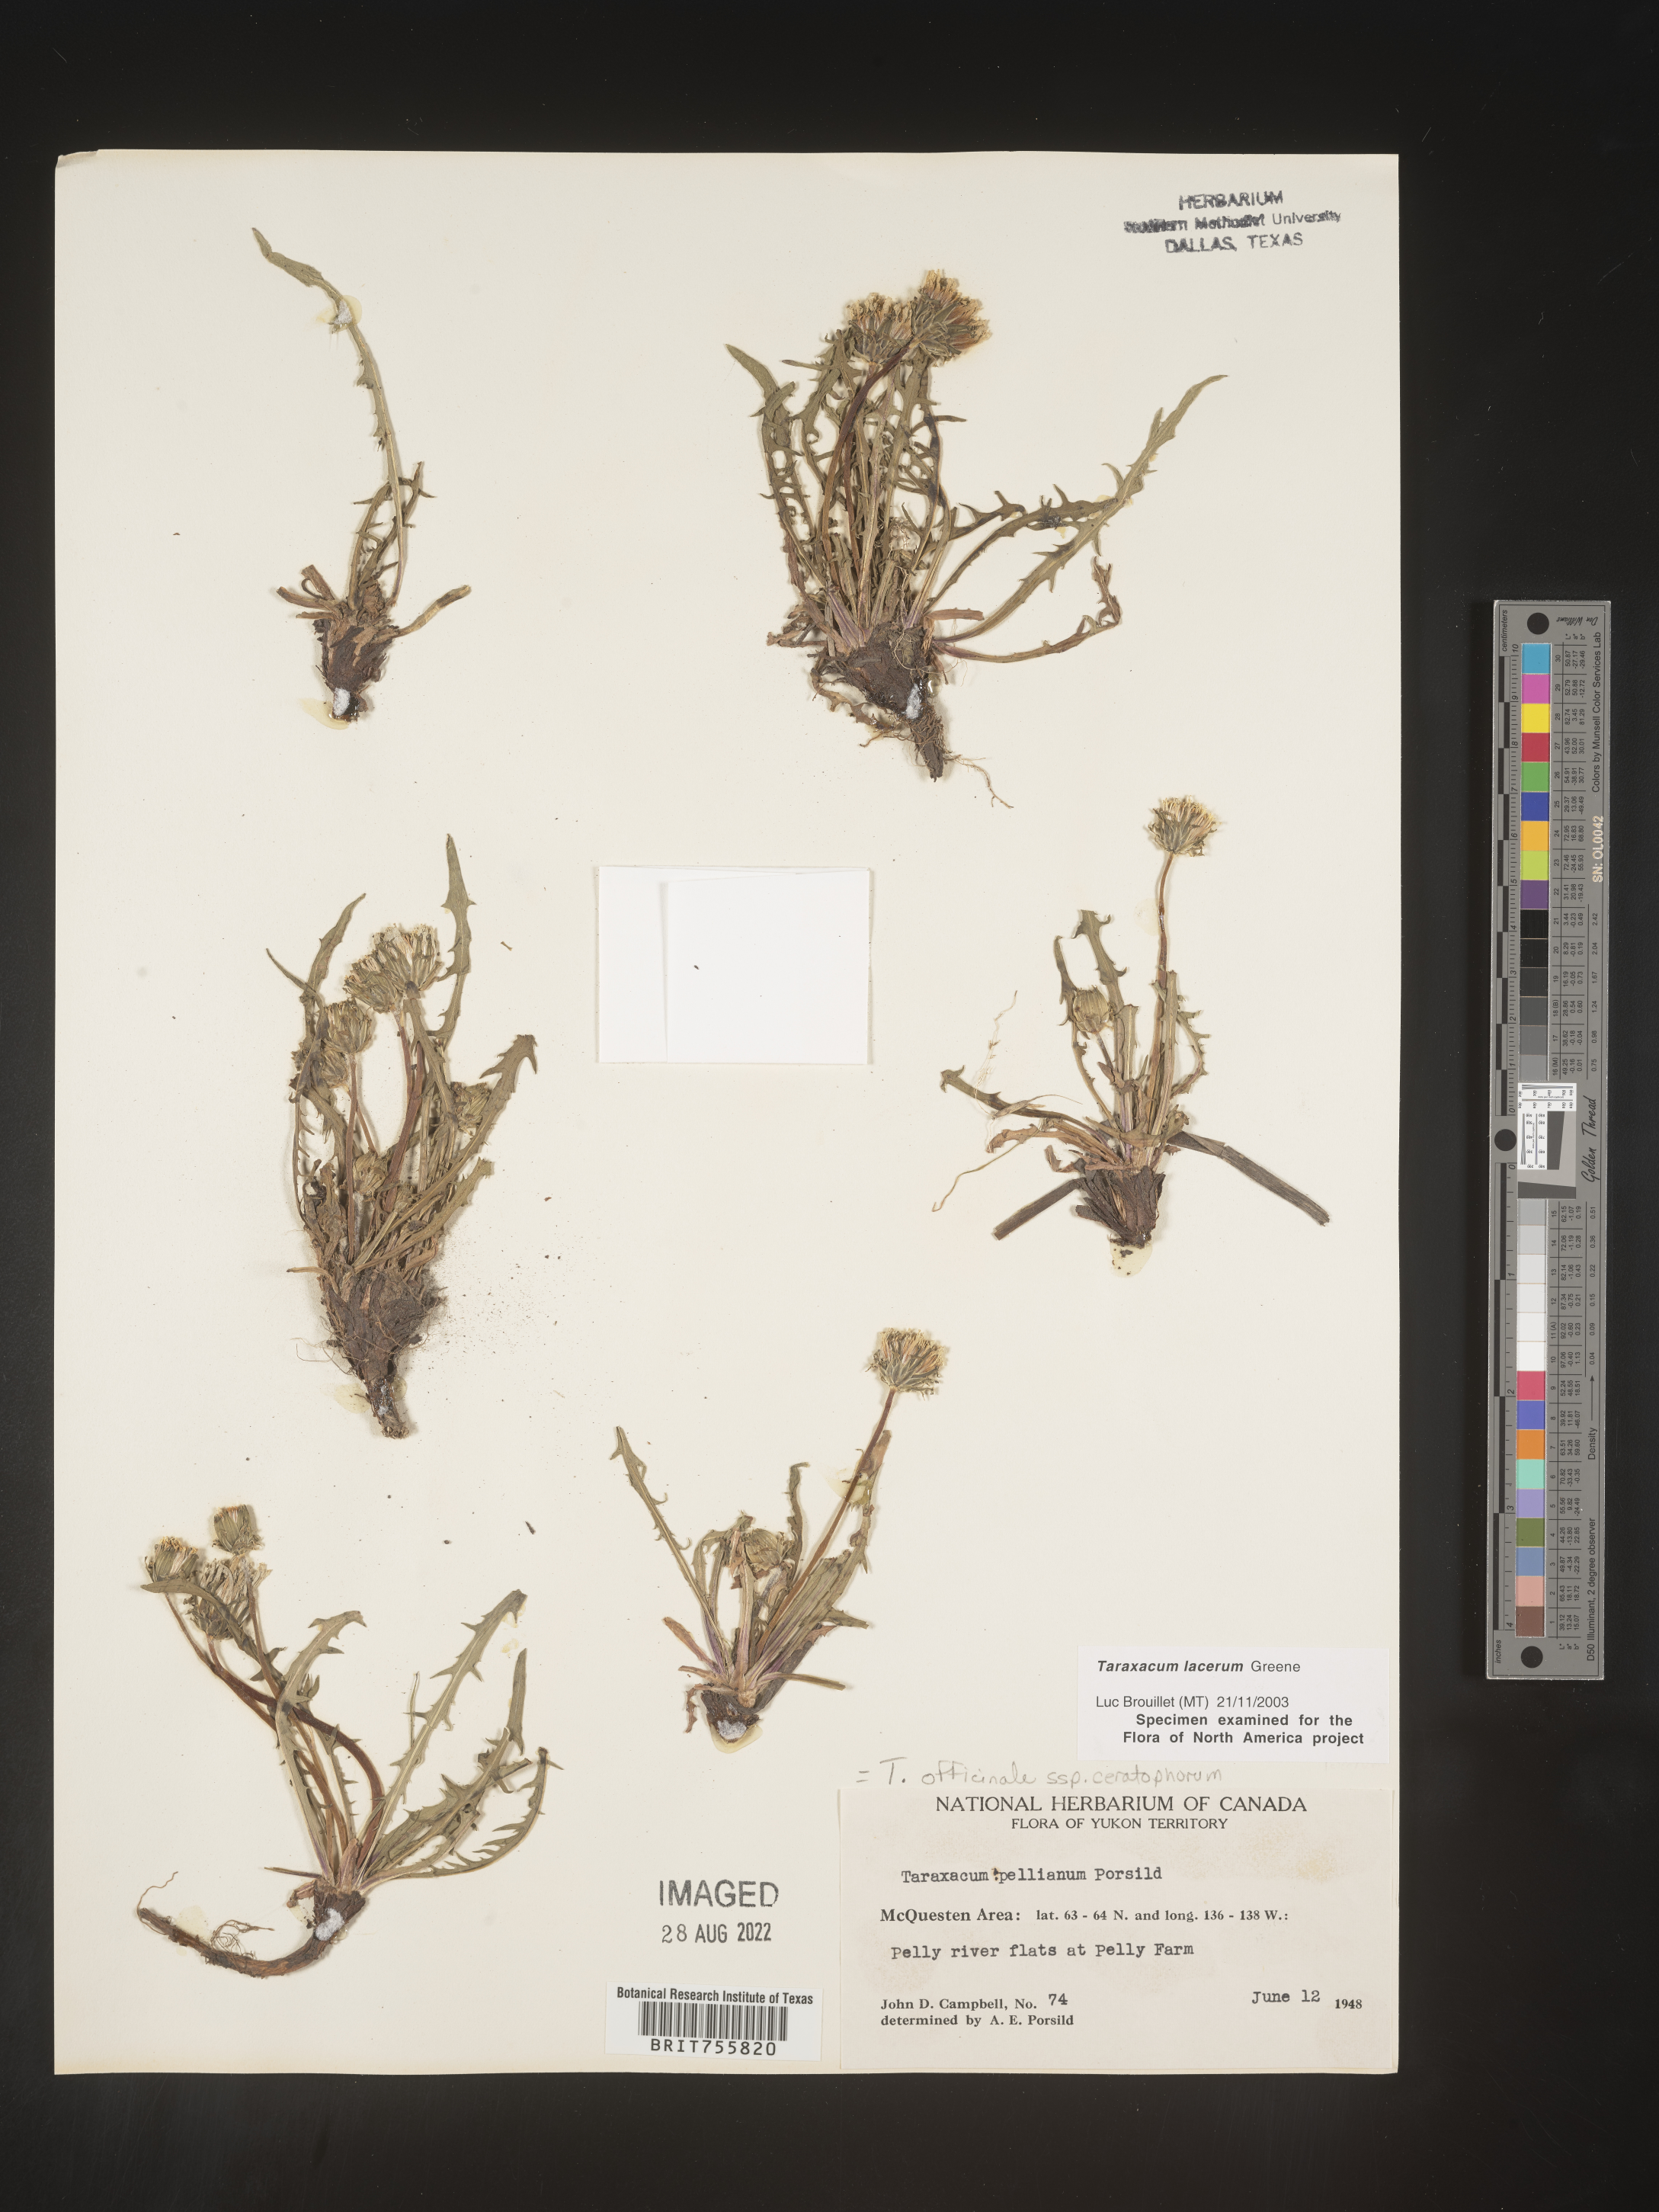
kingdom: Plantae
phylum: Tracheophyta
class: Magnoliopsida
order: Asterales
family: Asteraceae
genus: Taraxacum
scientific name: Taraxacum
